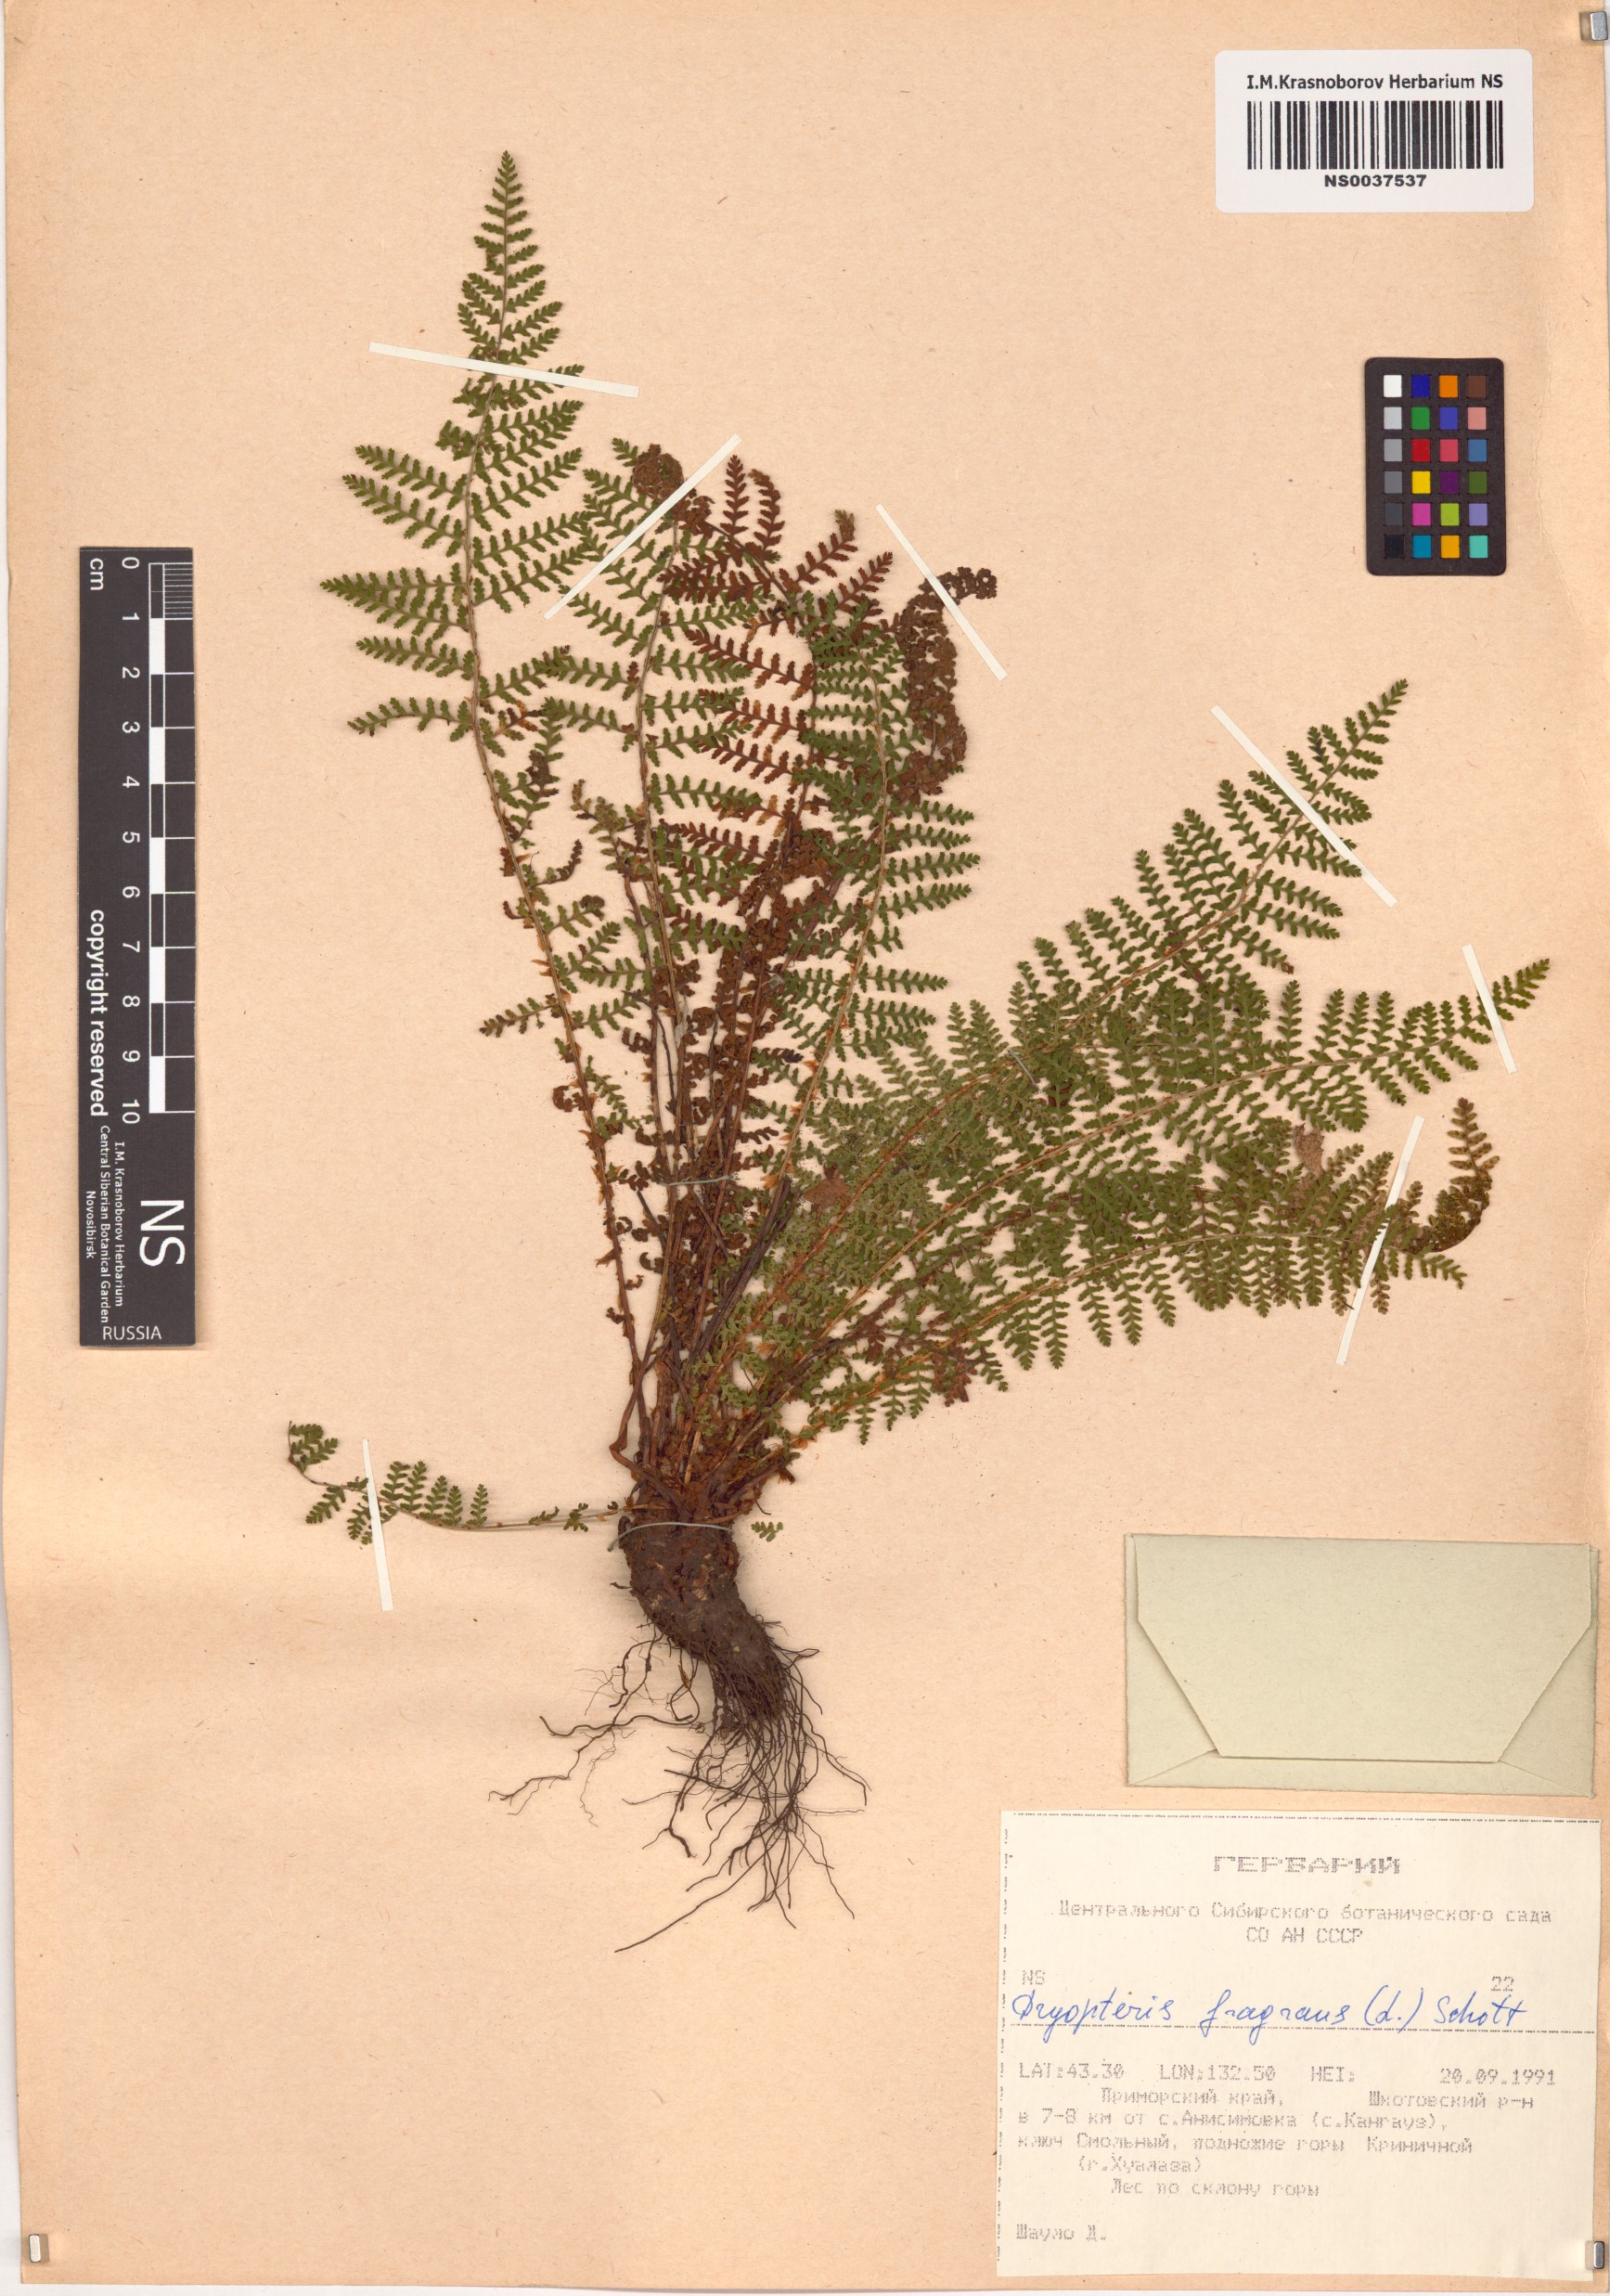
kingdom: Plantae
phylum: Tracheophyta
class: Polypodiopsida
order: Polypodiales
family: Dryopteridaceae
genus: Dryopteris
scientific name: Dryopteris fragrans
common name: Fragrant wood fern
